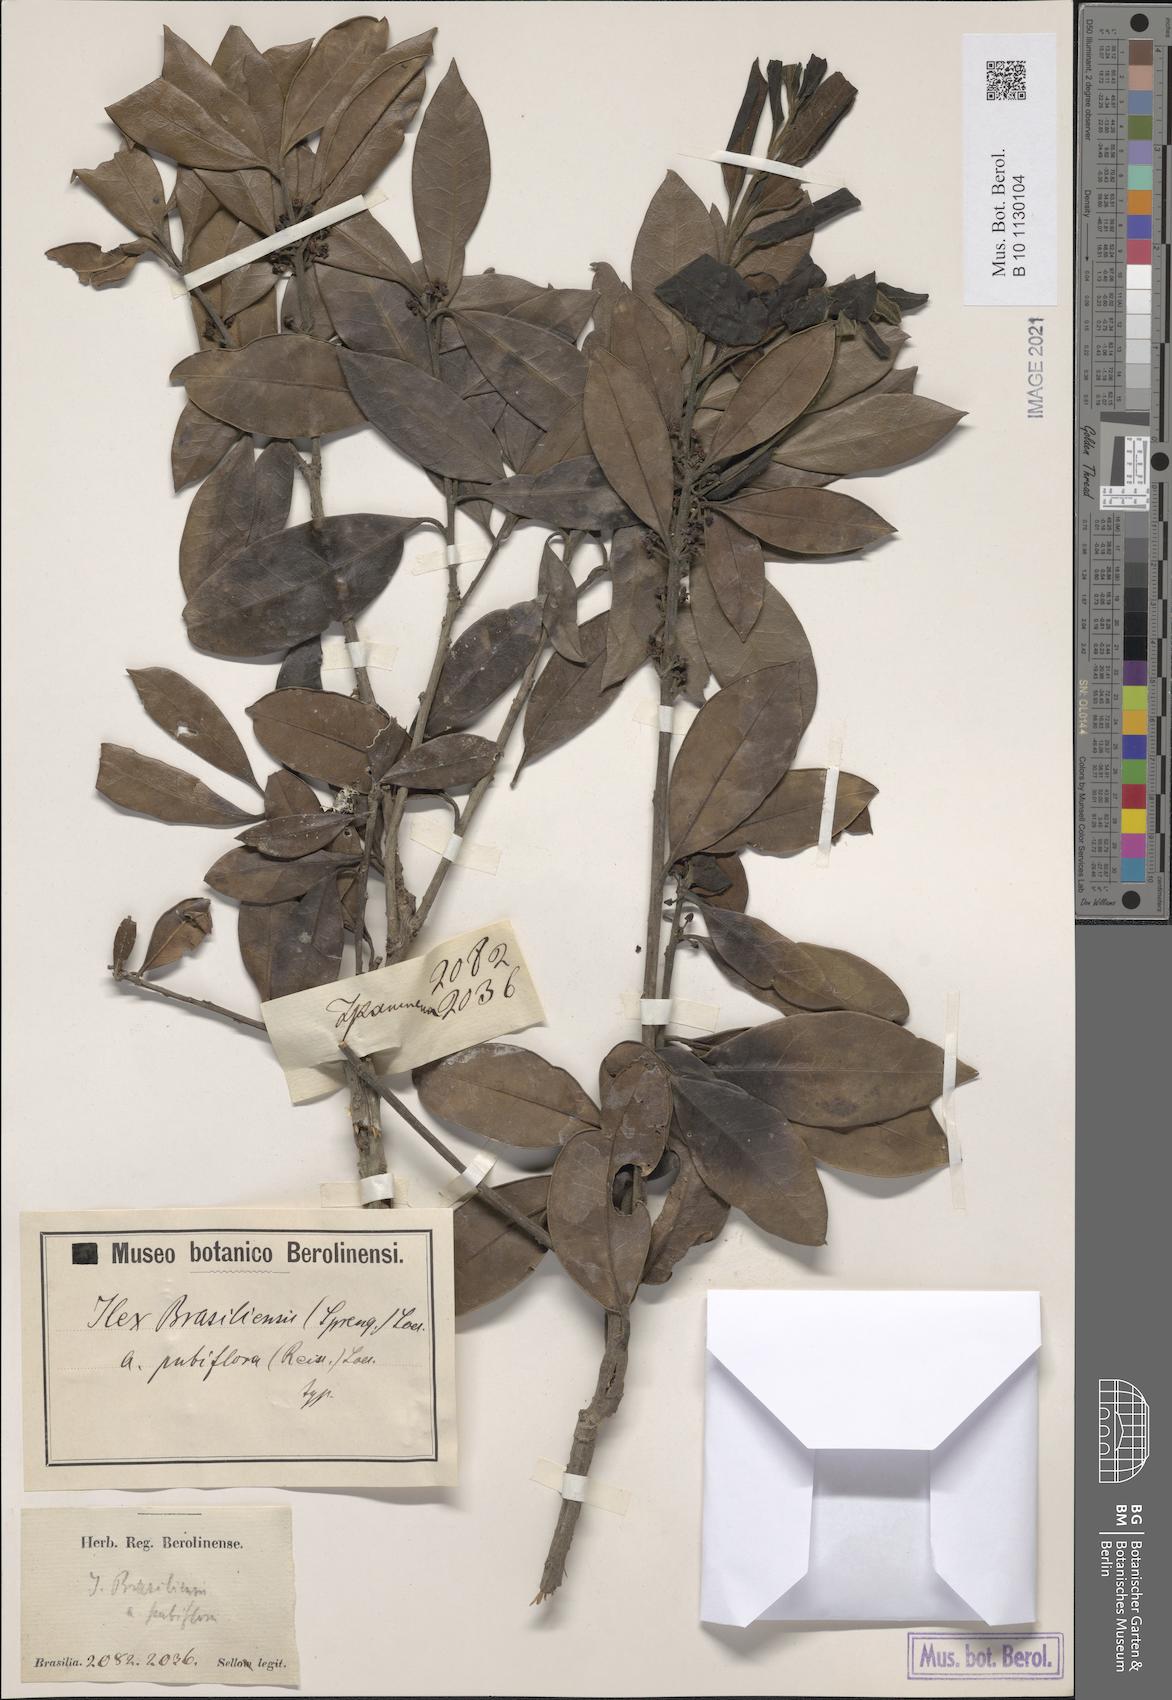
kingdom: Plantae
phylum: Tracheophyta
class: Magnoliopsida
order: Aquifoliales
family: Aquifoliaceae
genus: Ilex
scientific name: Ilex brasiliensis
